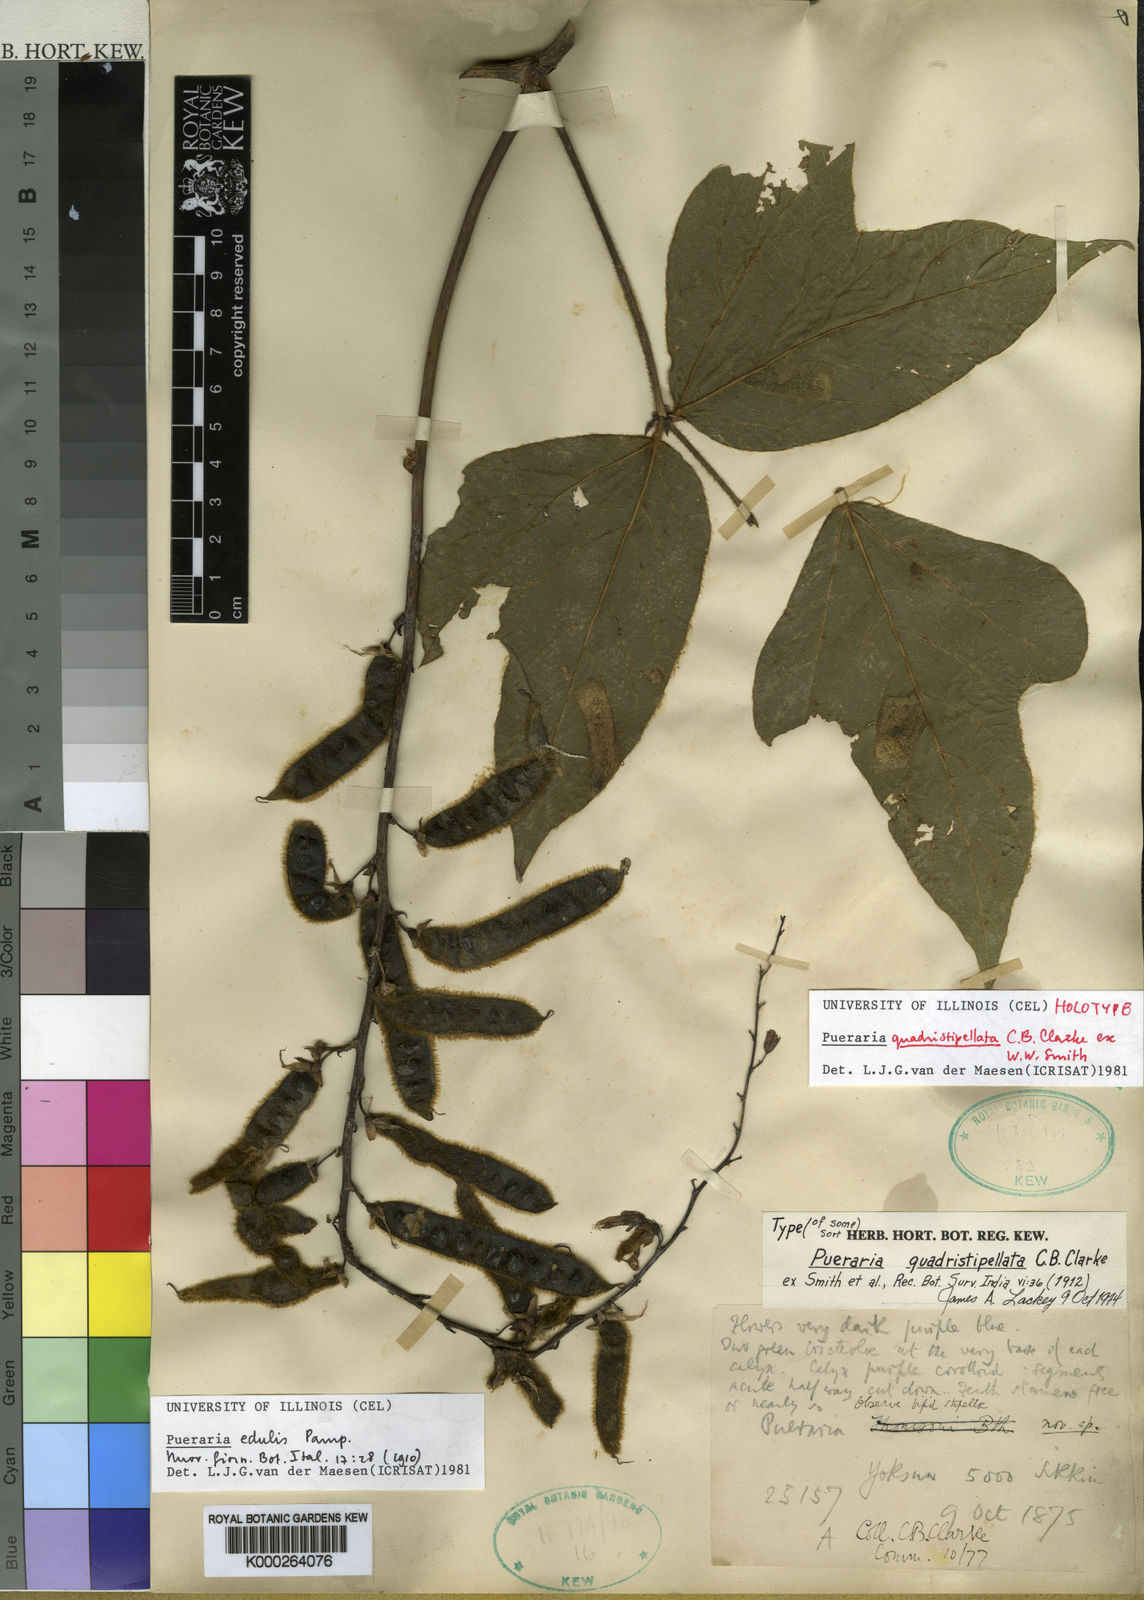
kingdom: Plantae
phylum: Tracheophyta
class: Magnoliopsida
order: Fabales
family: Fabaceae
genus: Pueraria
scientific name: Pueraria
